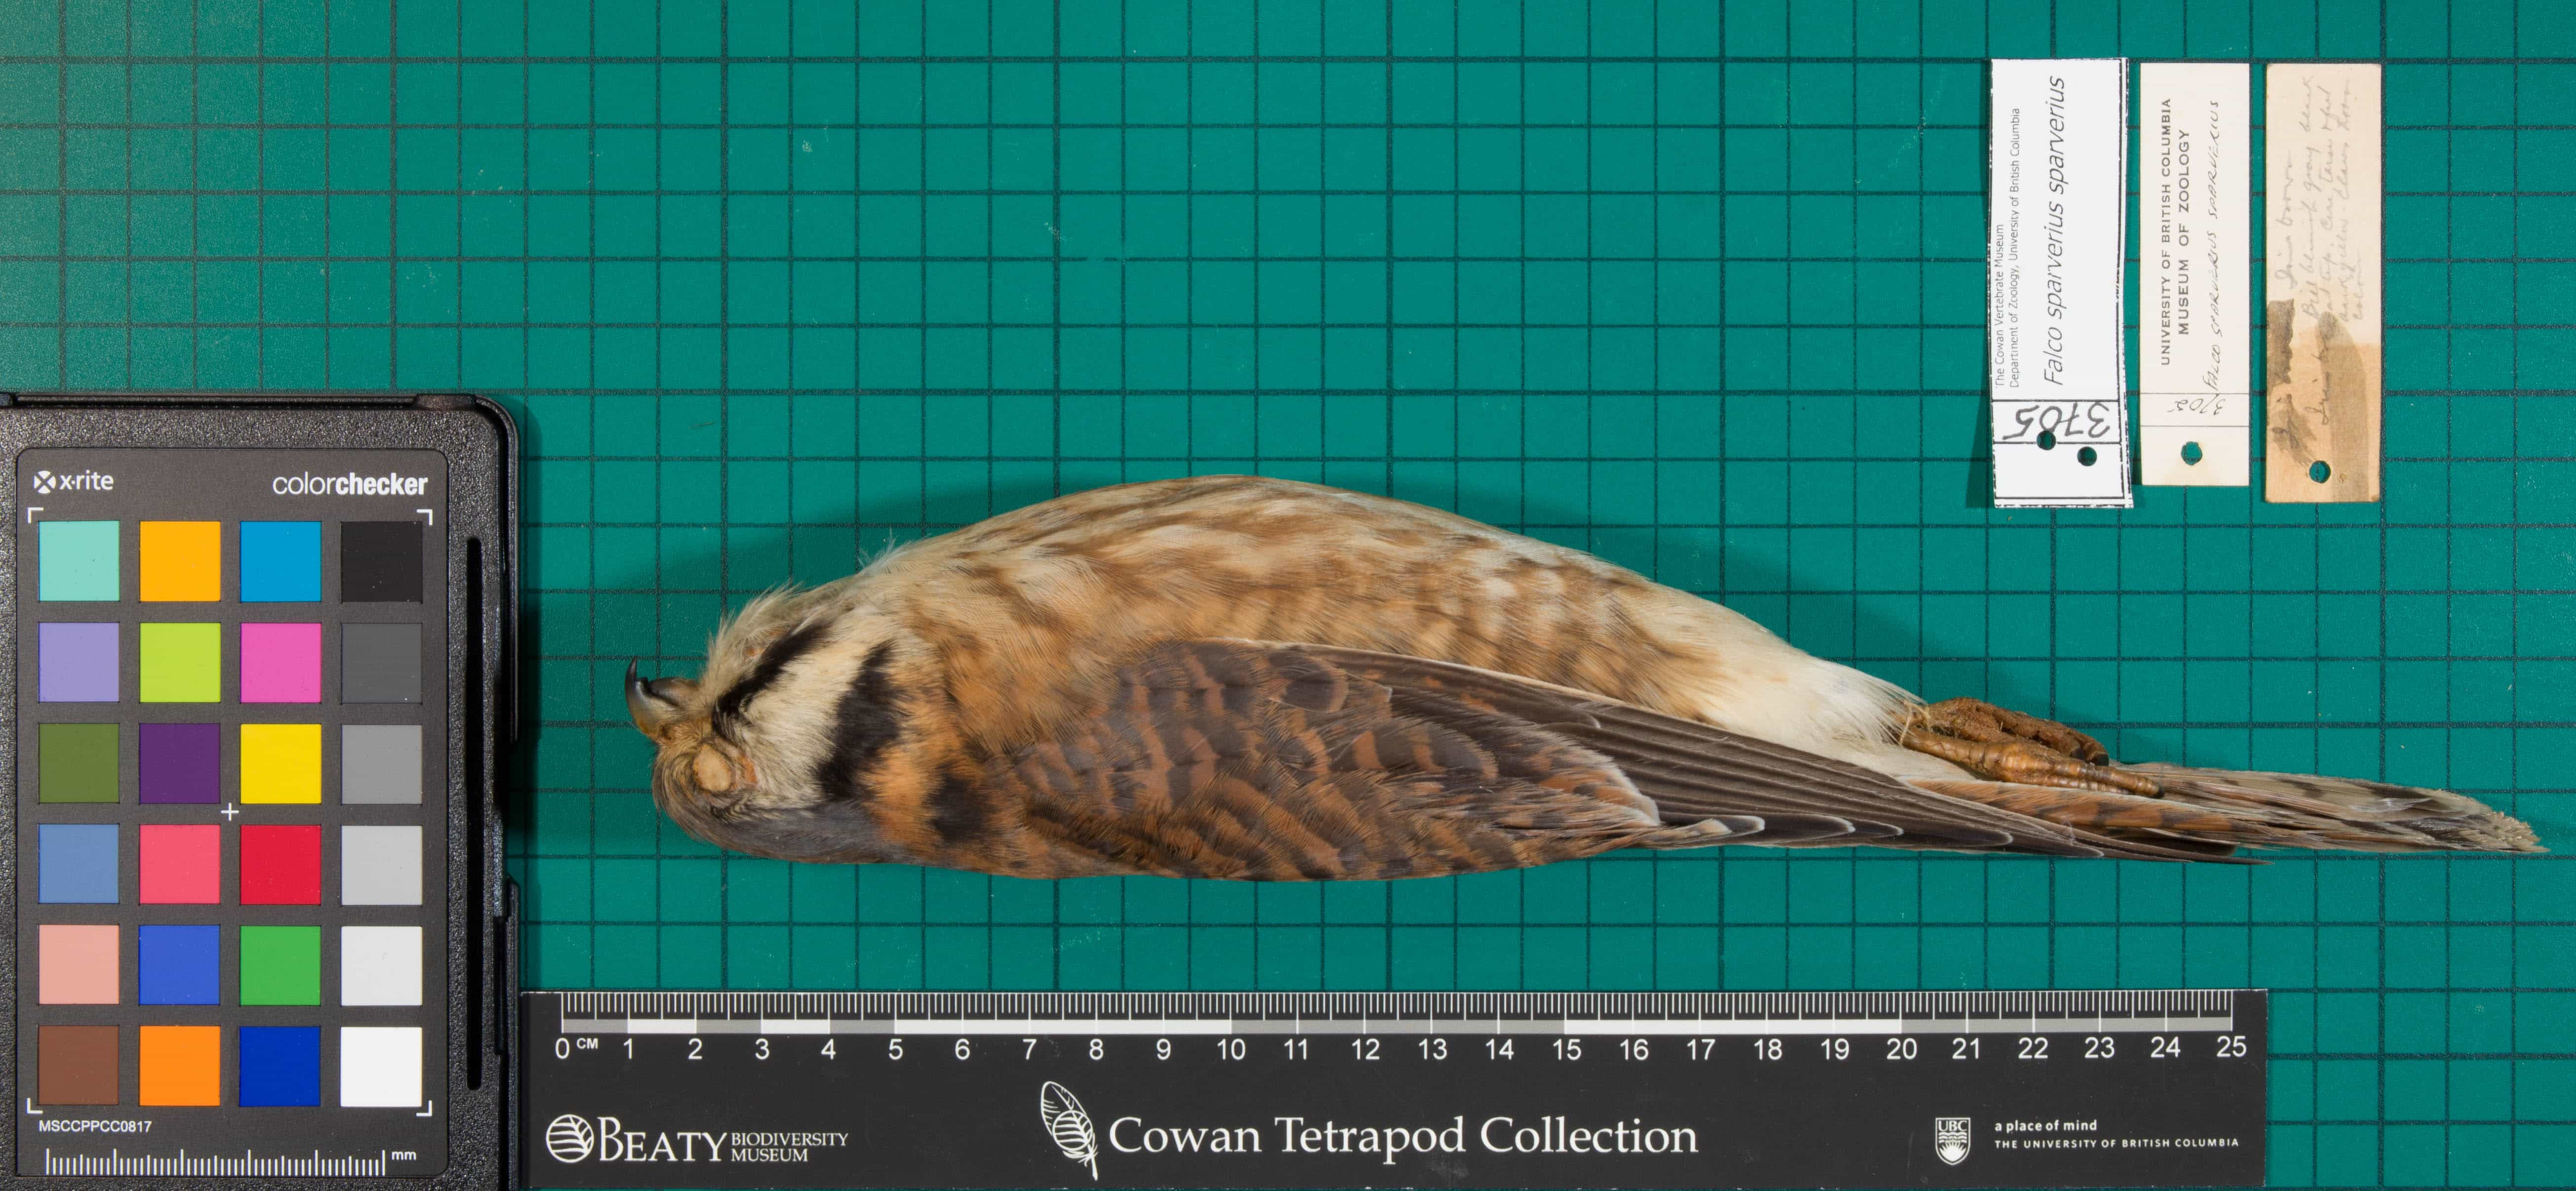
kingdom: Animalia
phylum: Chordata
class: Aves
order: Falconiformes
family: Falconidae
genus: Falco
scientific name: Falco sparverius
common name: American Kestrel
